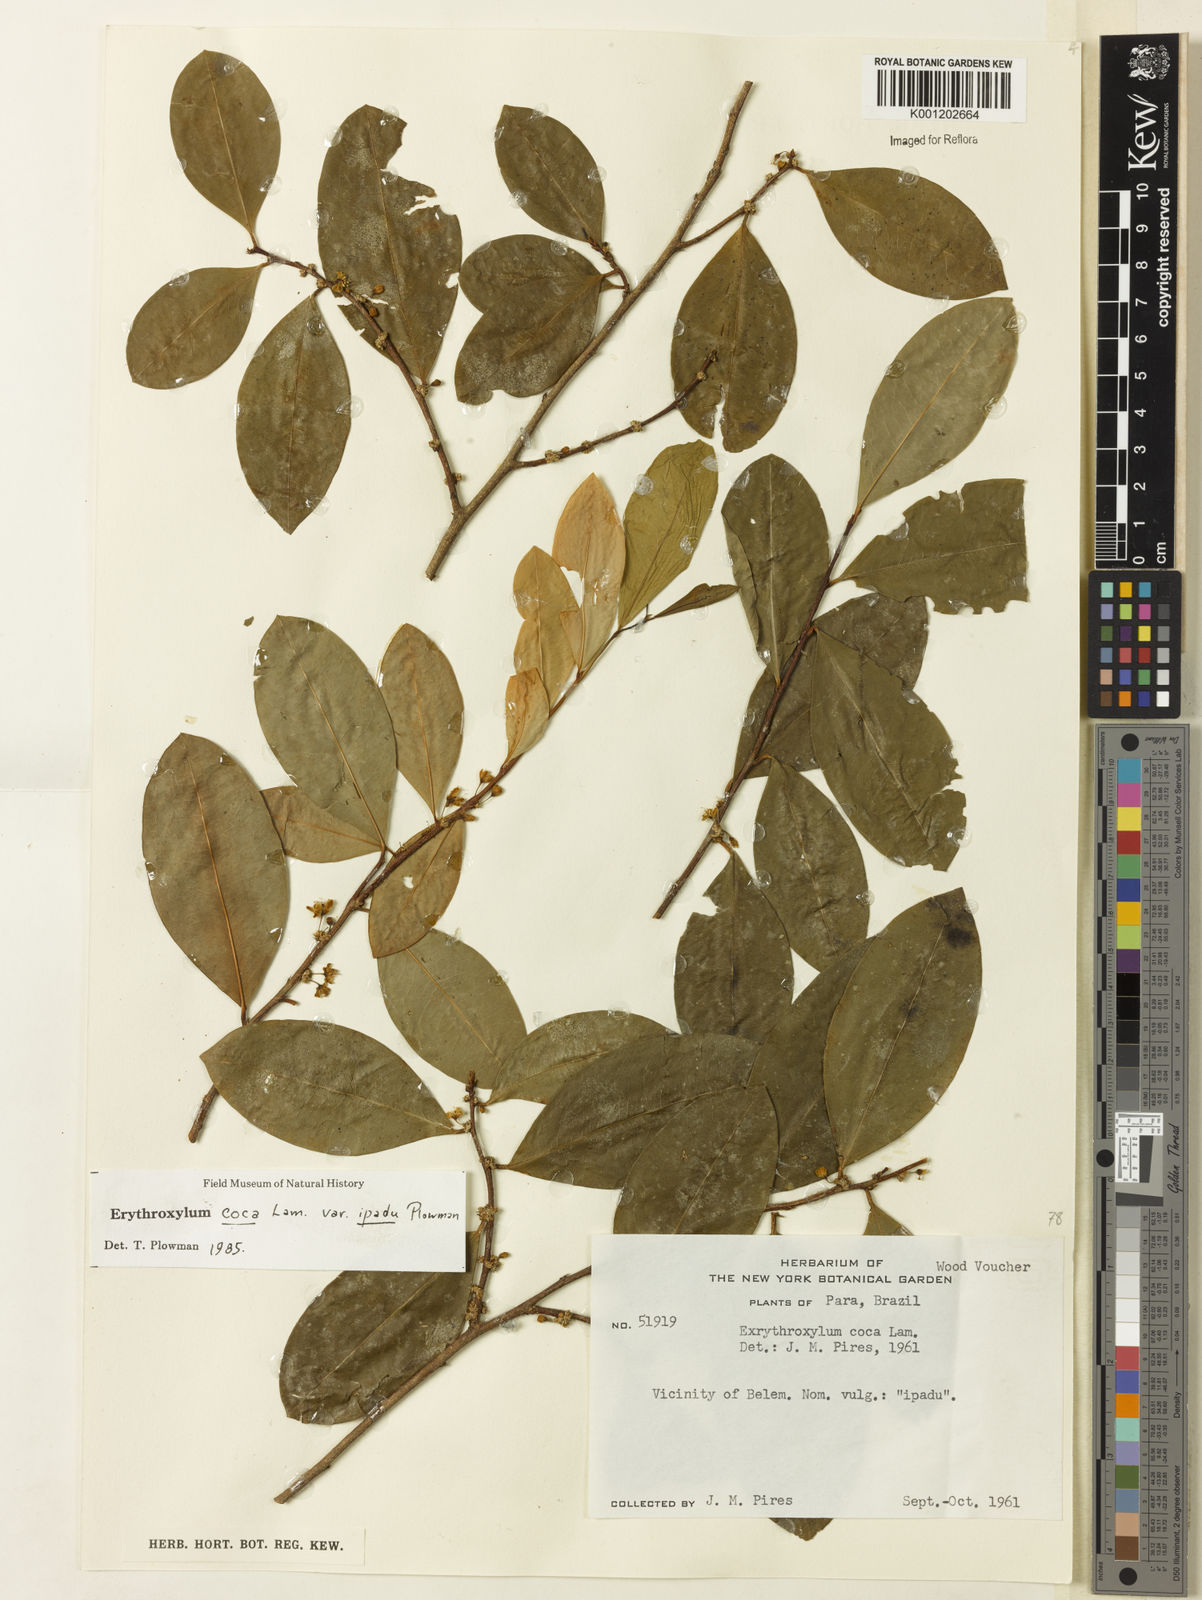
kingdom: Plantae
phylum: Tracheophyta
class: Magnoliopsida
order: Malpighiales
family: Erythroxylaceae
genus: Erythroxylum
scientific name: Erythroxylum coca
